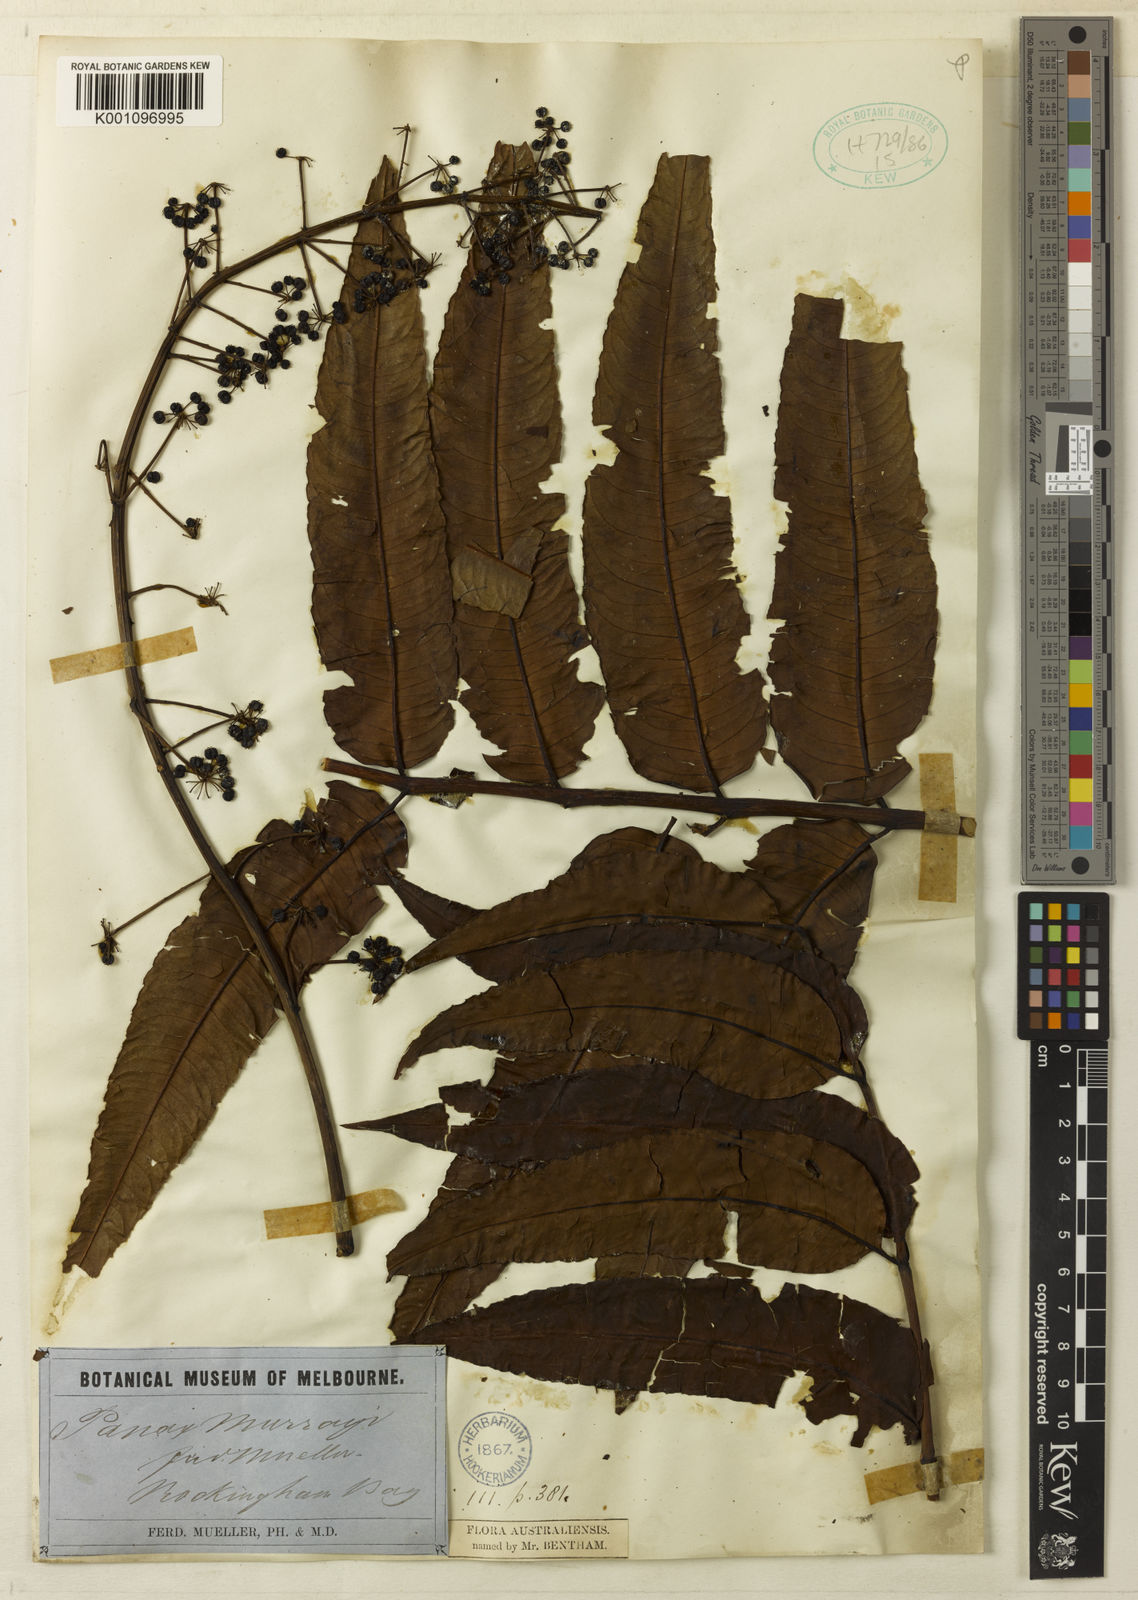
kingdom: Plantae
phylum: Tracheophyta
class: Magnoliopsida
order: Apiales
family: Araliaceae
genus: Polyscias
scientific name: Polyscias murrayi
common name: Pencil cedar
